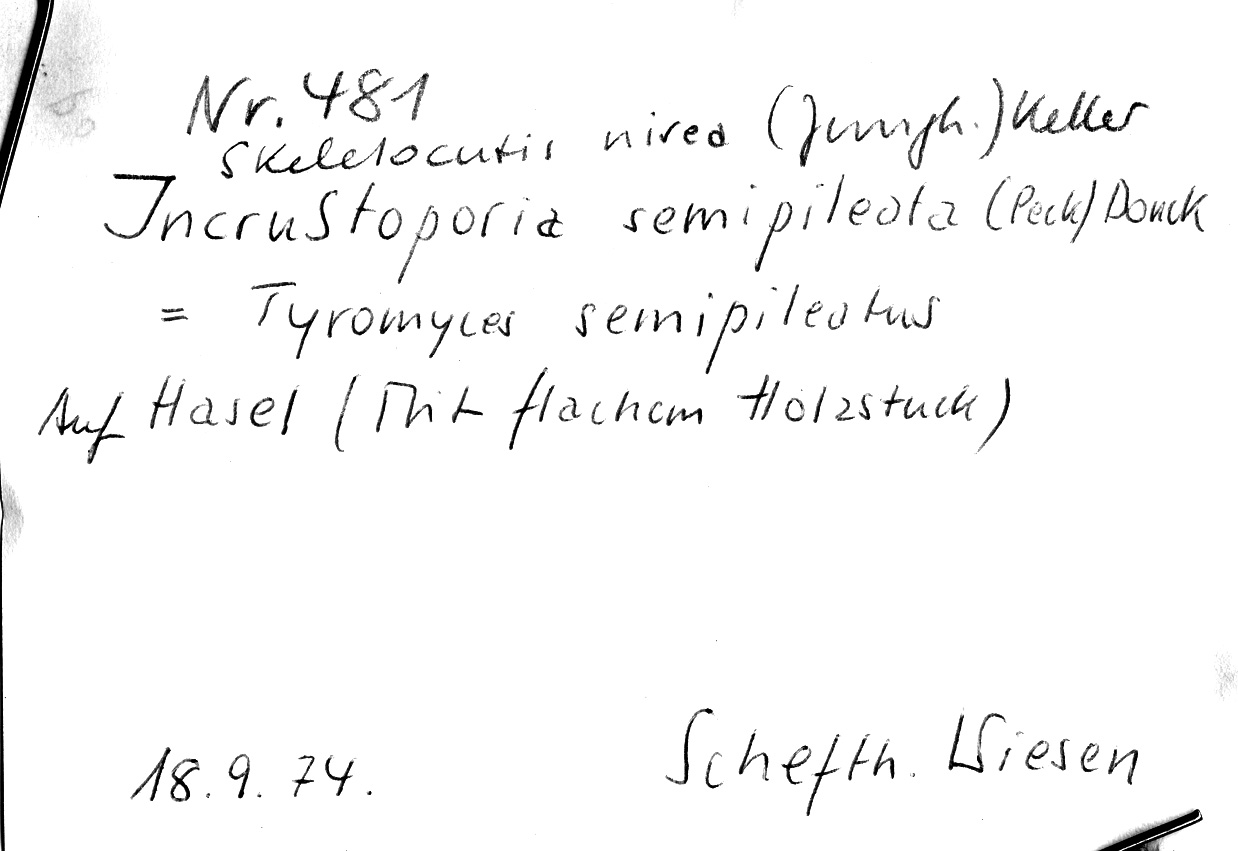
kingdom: Fungi
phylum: Basidiomycota
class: Agaricomycetes
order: Polyporales
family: Incrustoporiaceae
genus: Skeletocutis
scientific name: Skeletocutis nivea
